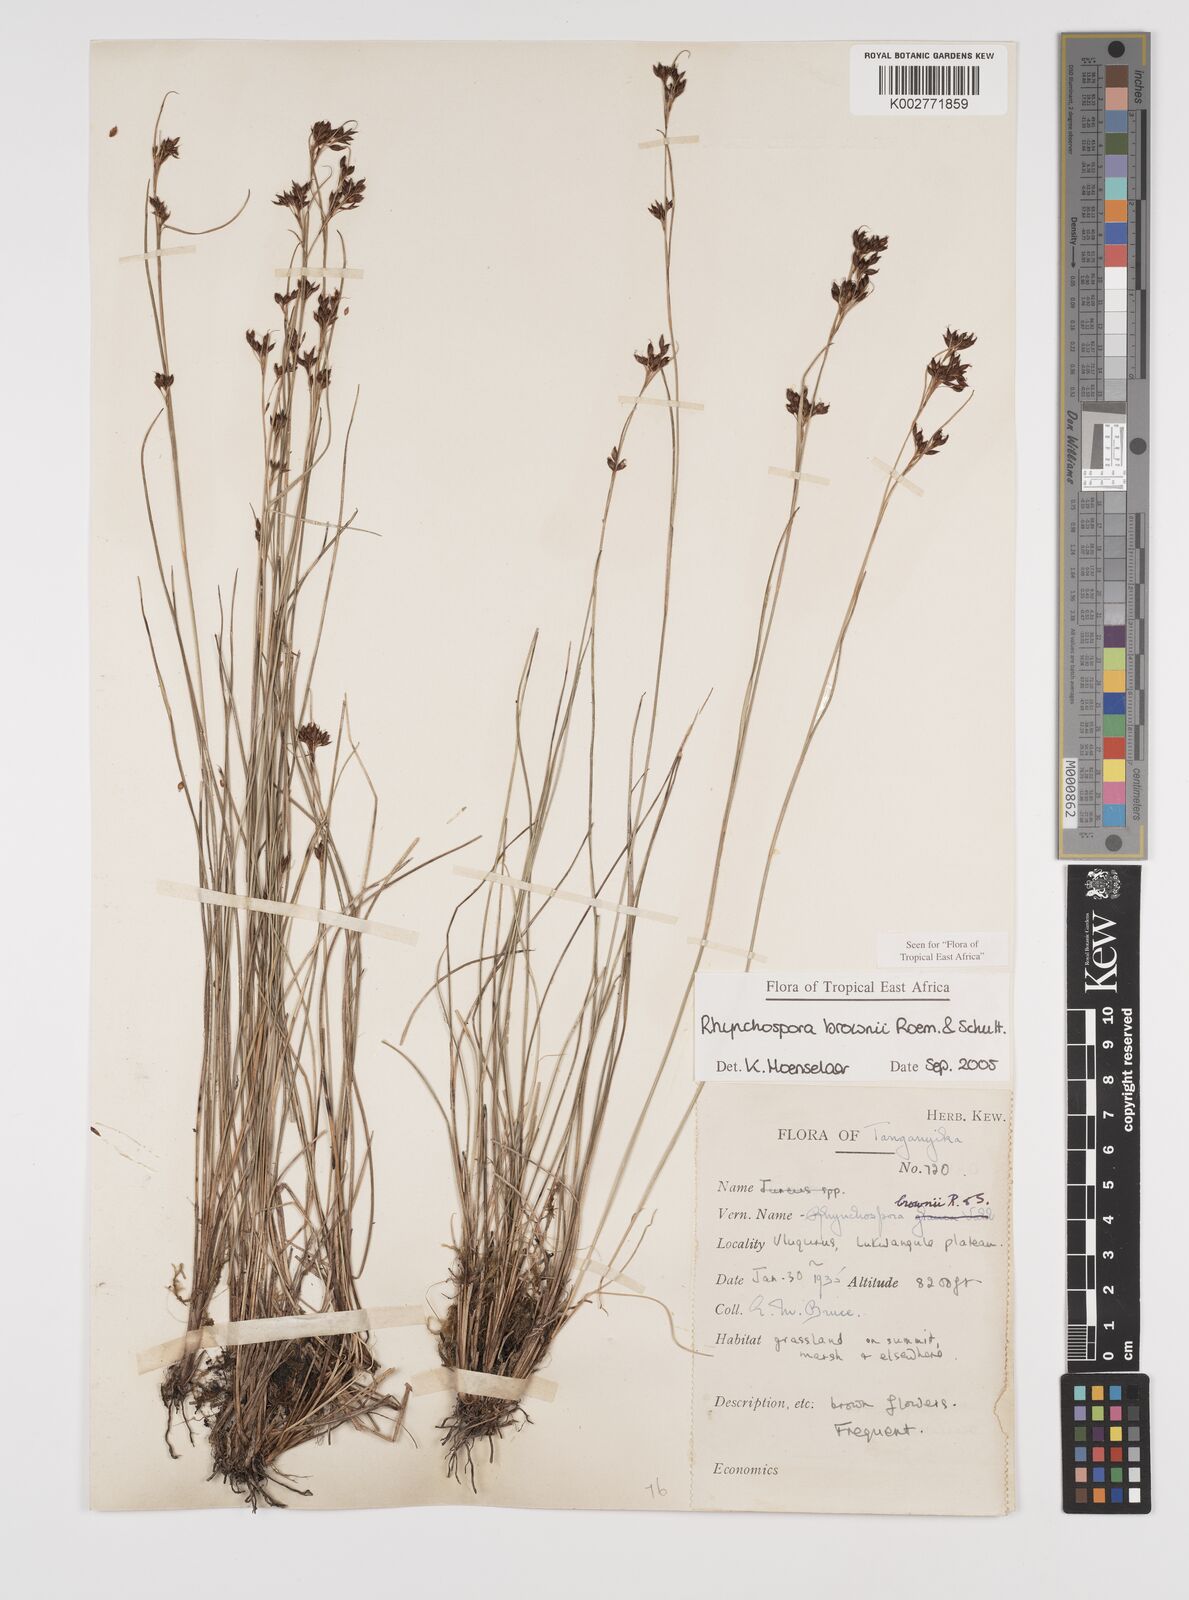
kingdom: Plantae
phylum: Tracheophyta
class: Liliopsida
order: Poales
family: Cyperaceae
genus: Rhynchospora
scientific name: Rhynchospora brownii
